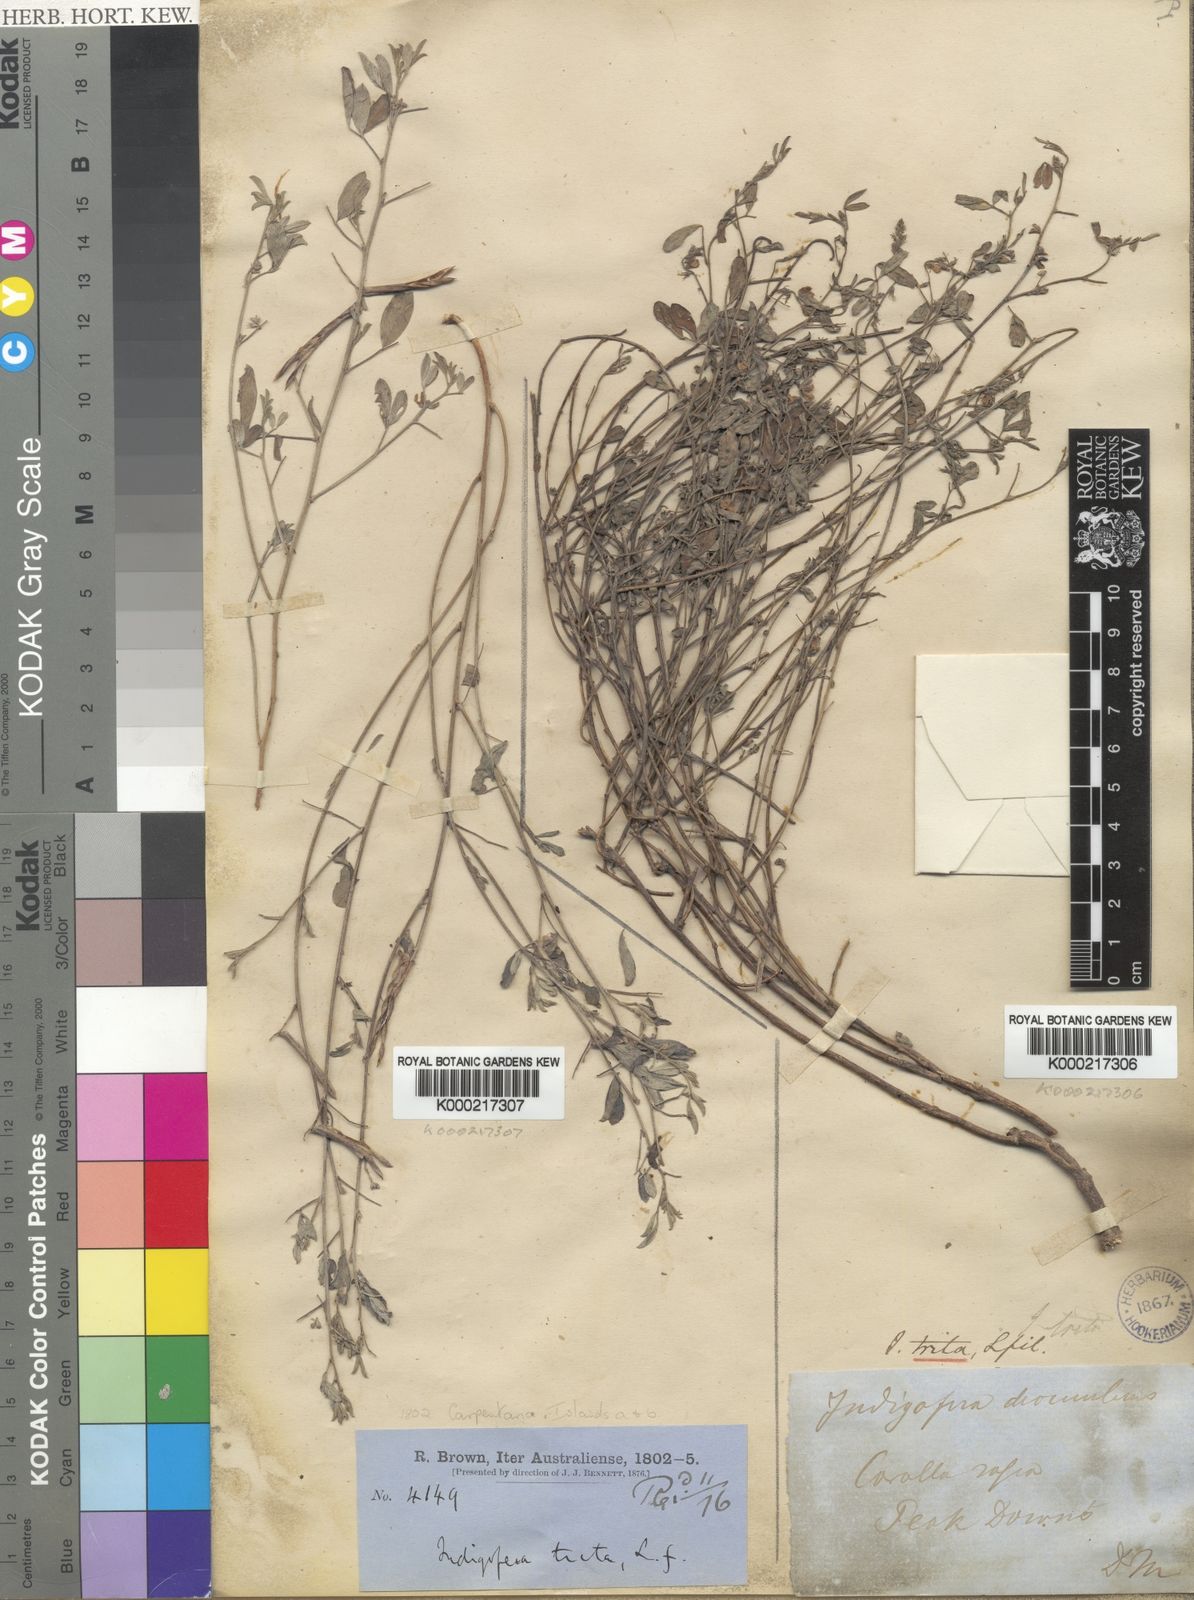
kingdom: Plantae
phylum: Tracheophyta
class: Magnoliopsida
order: Fabales
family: Fabaceae
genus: Indigofera
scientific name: Indigofera trita
